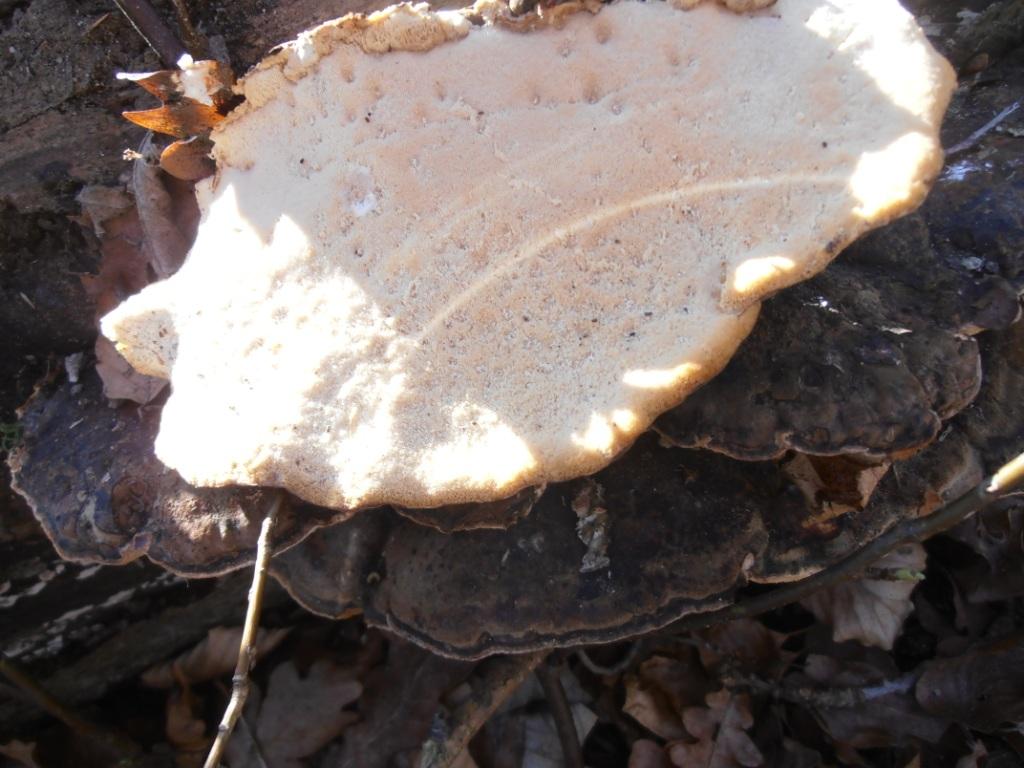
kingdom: Fungi
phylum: Basidiomycota
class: Agaricomycetes
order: Polyporales
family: Ischnodermataceae
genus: Ischnoderma
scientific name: Ischnoderma resinosum
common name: løv-tjæreporesvamp
